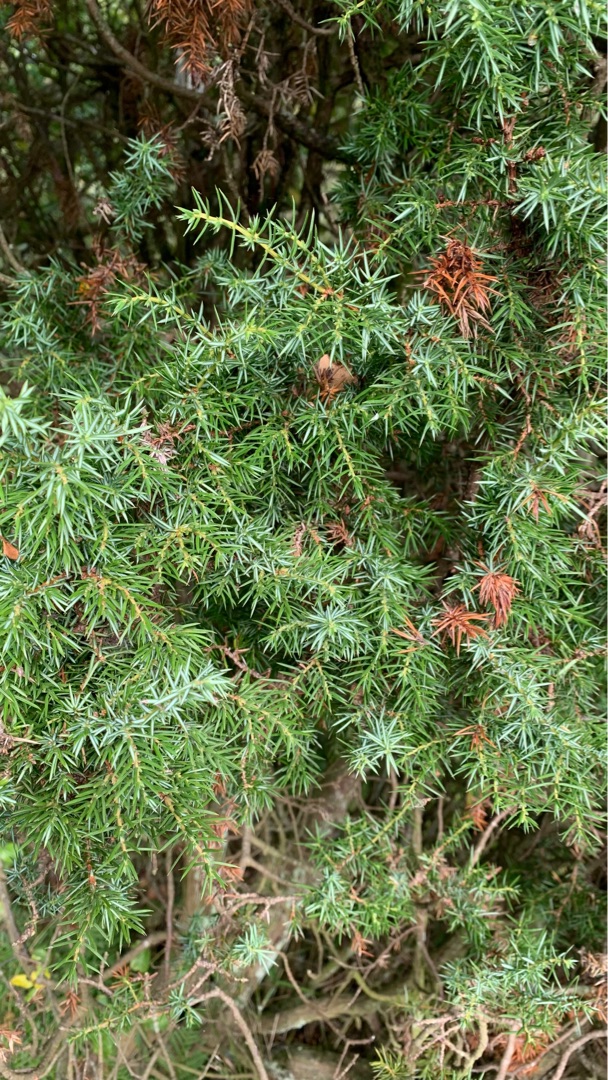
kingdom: Plantae
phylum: Tracheophyta
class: Pinopsida
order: Pinales
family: Cupressaceae
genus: Juniperus
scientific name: Juniperus communis
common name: Almindelig ene
